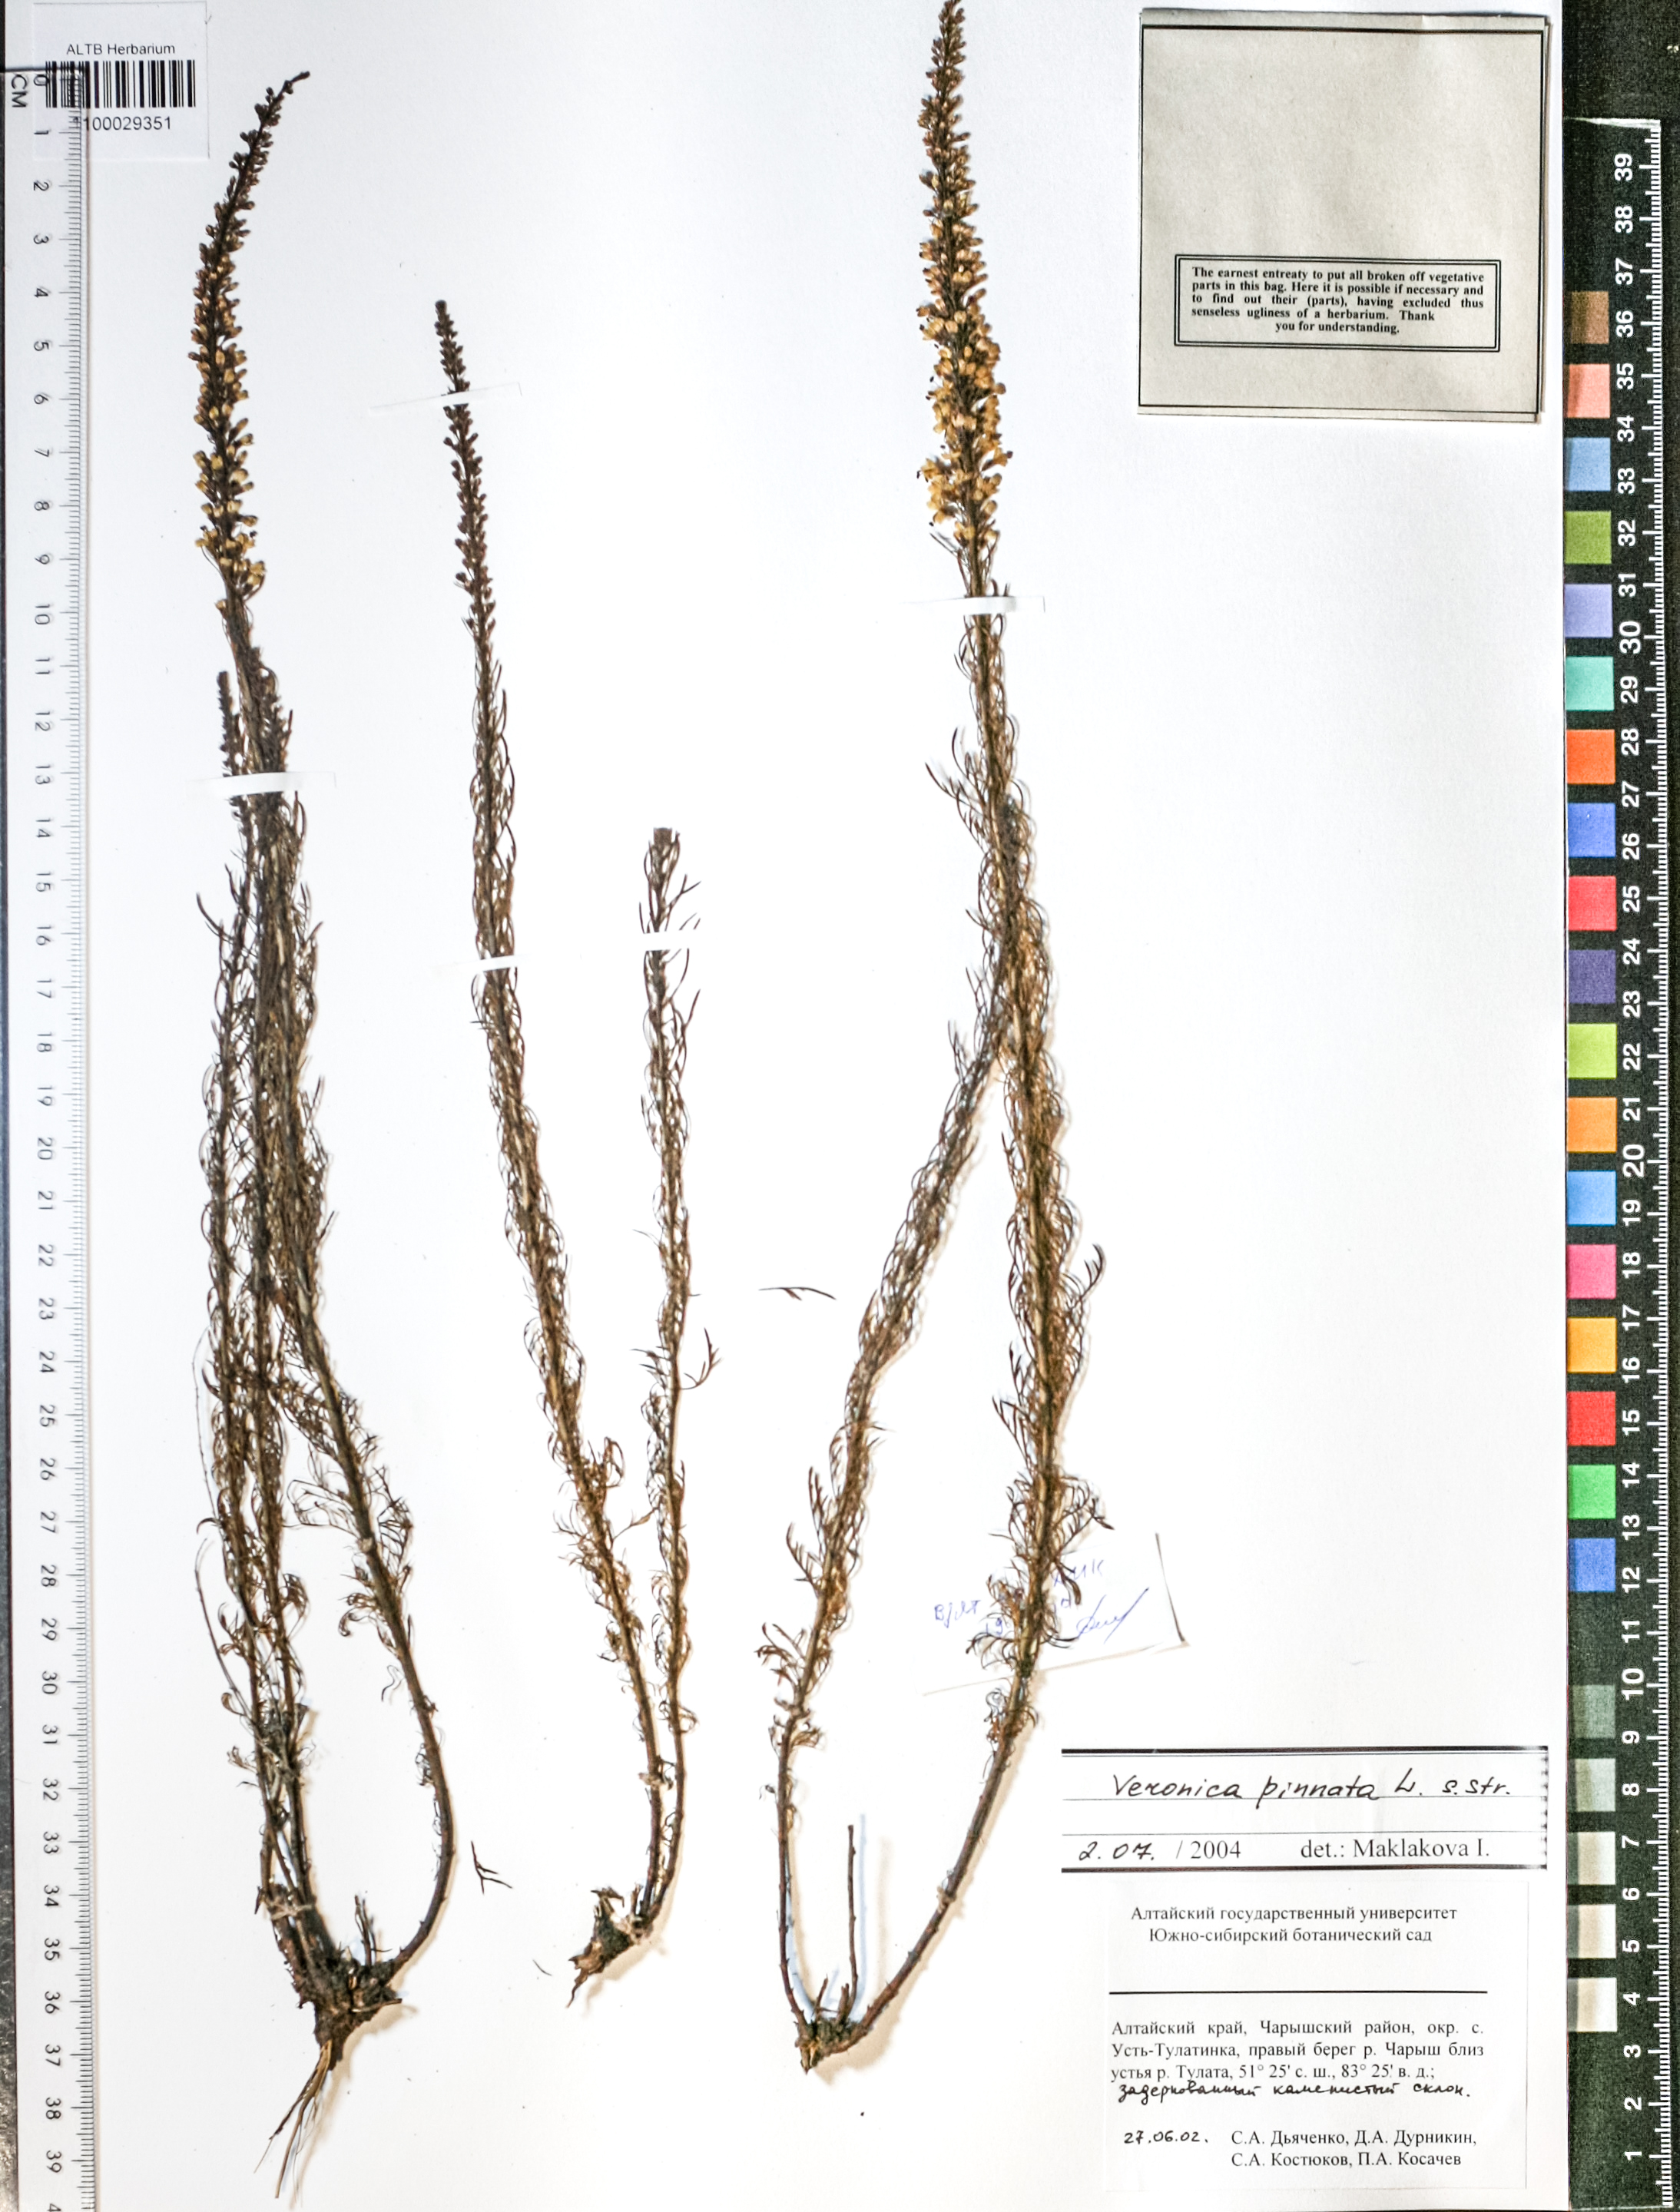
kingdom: Plantae
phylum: Tracheophyta
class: Magnoliopsida
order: Lamiales
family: Plantaginaceae
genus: Veronica
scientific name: Veronica pinnata
